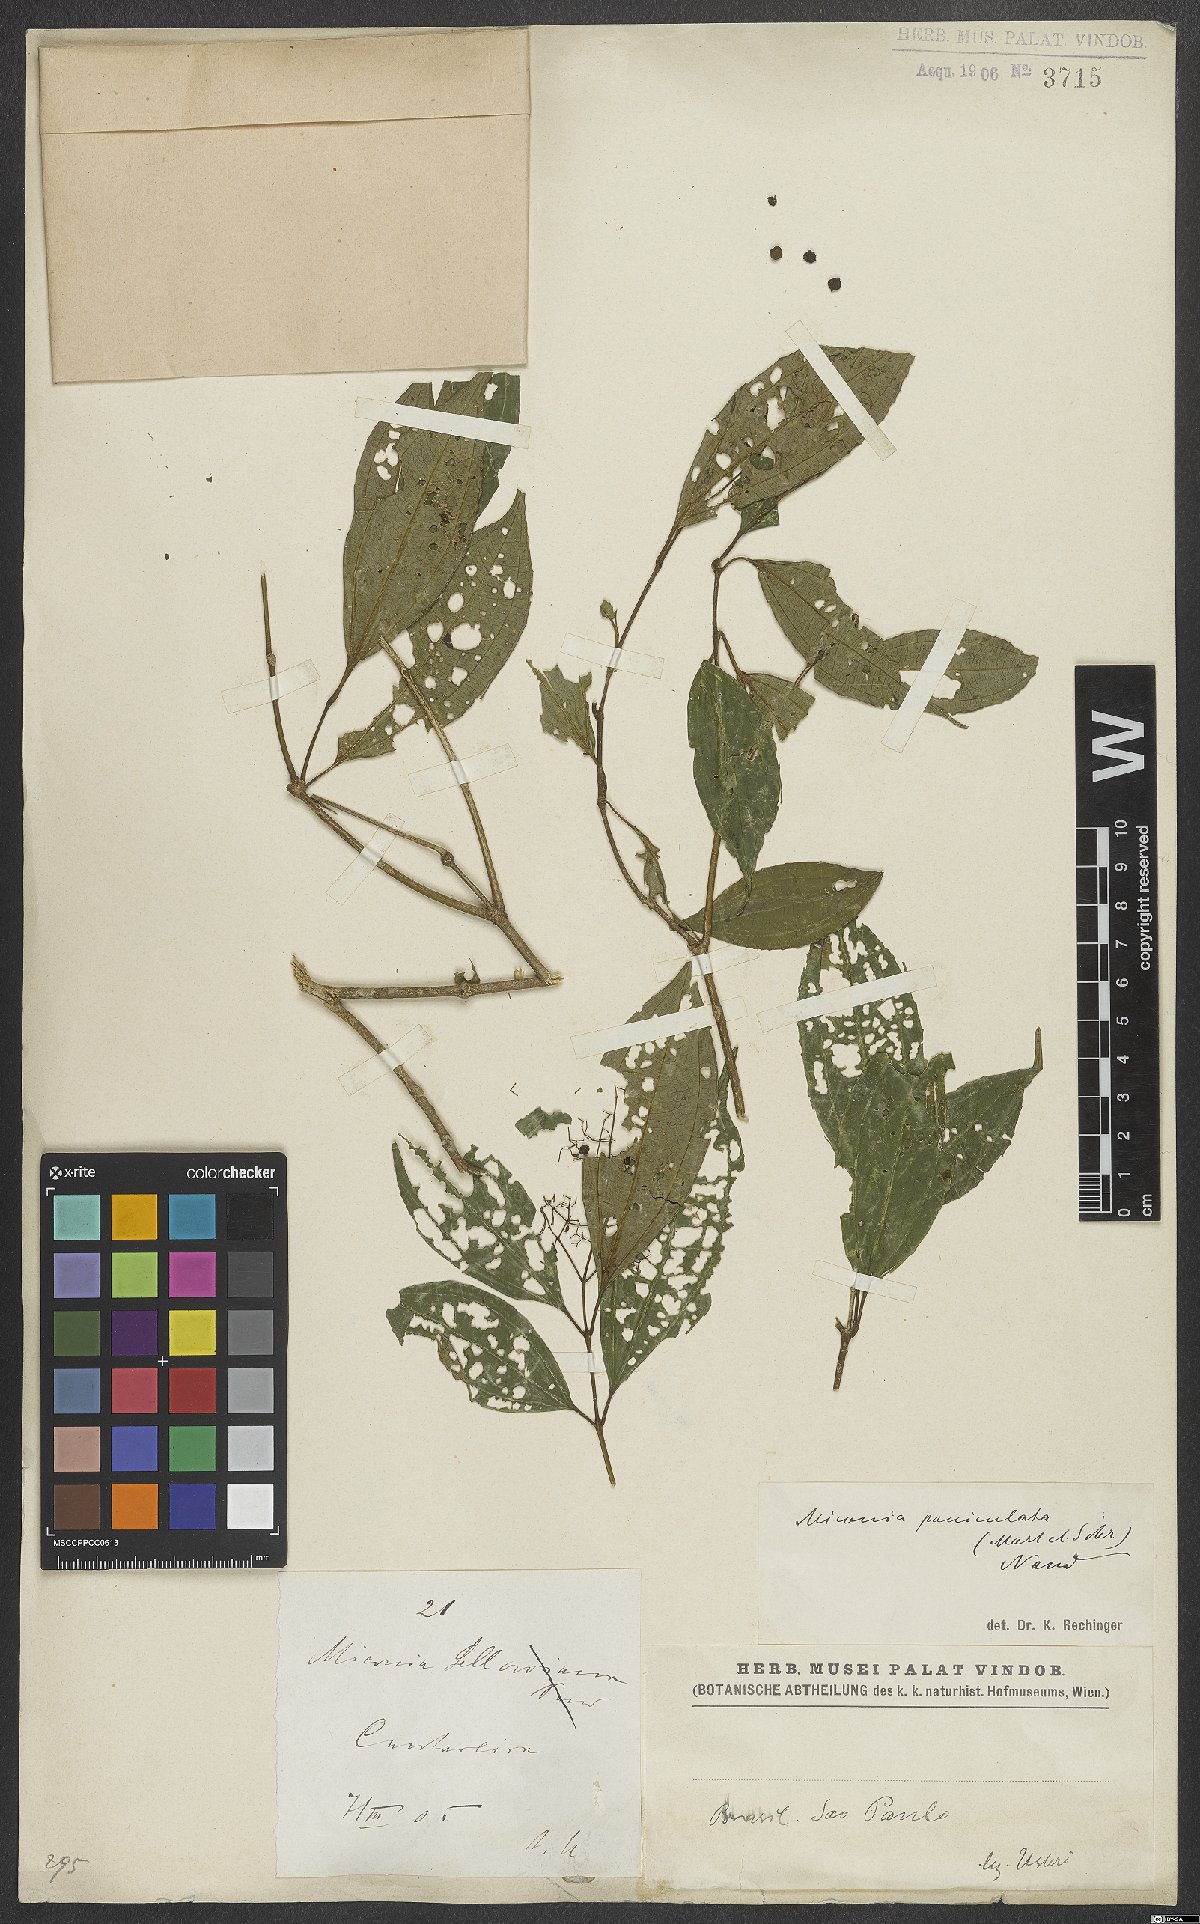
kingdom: Plantae
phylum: Tracheophyta
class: Magnoliopsida
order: Myrtales
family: Melastomataceae
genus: Miconia
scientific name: Miconia paniculata
